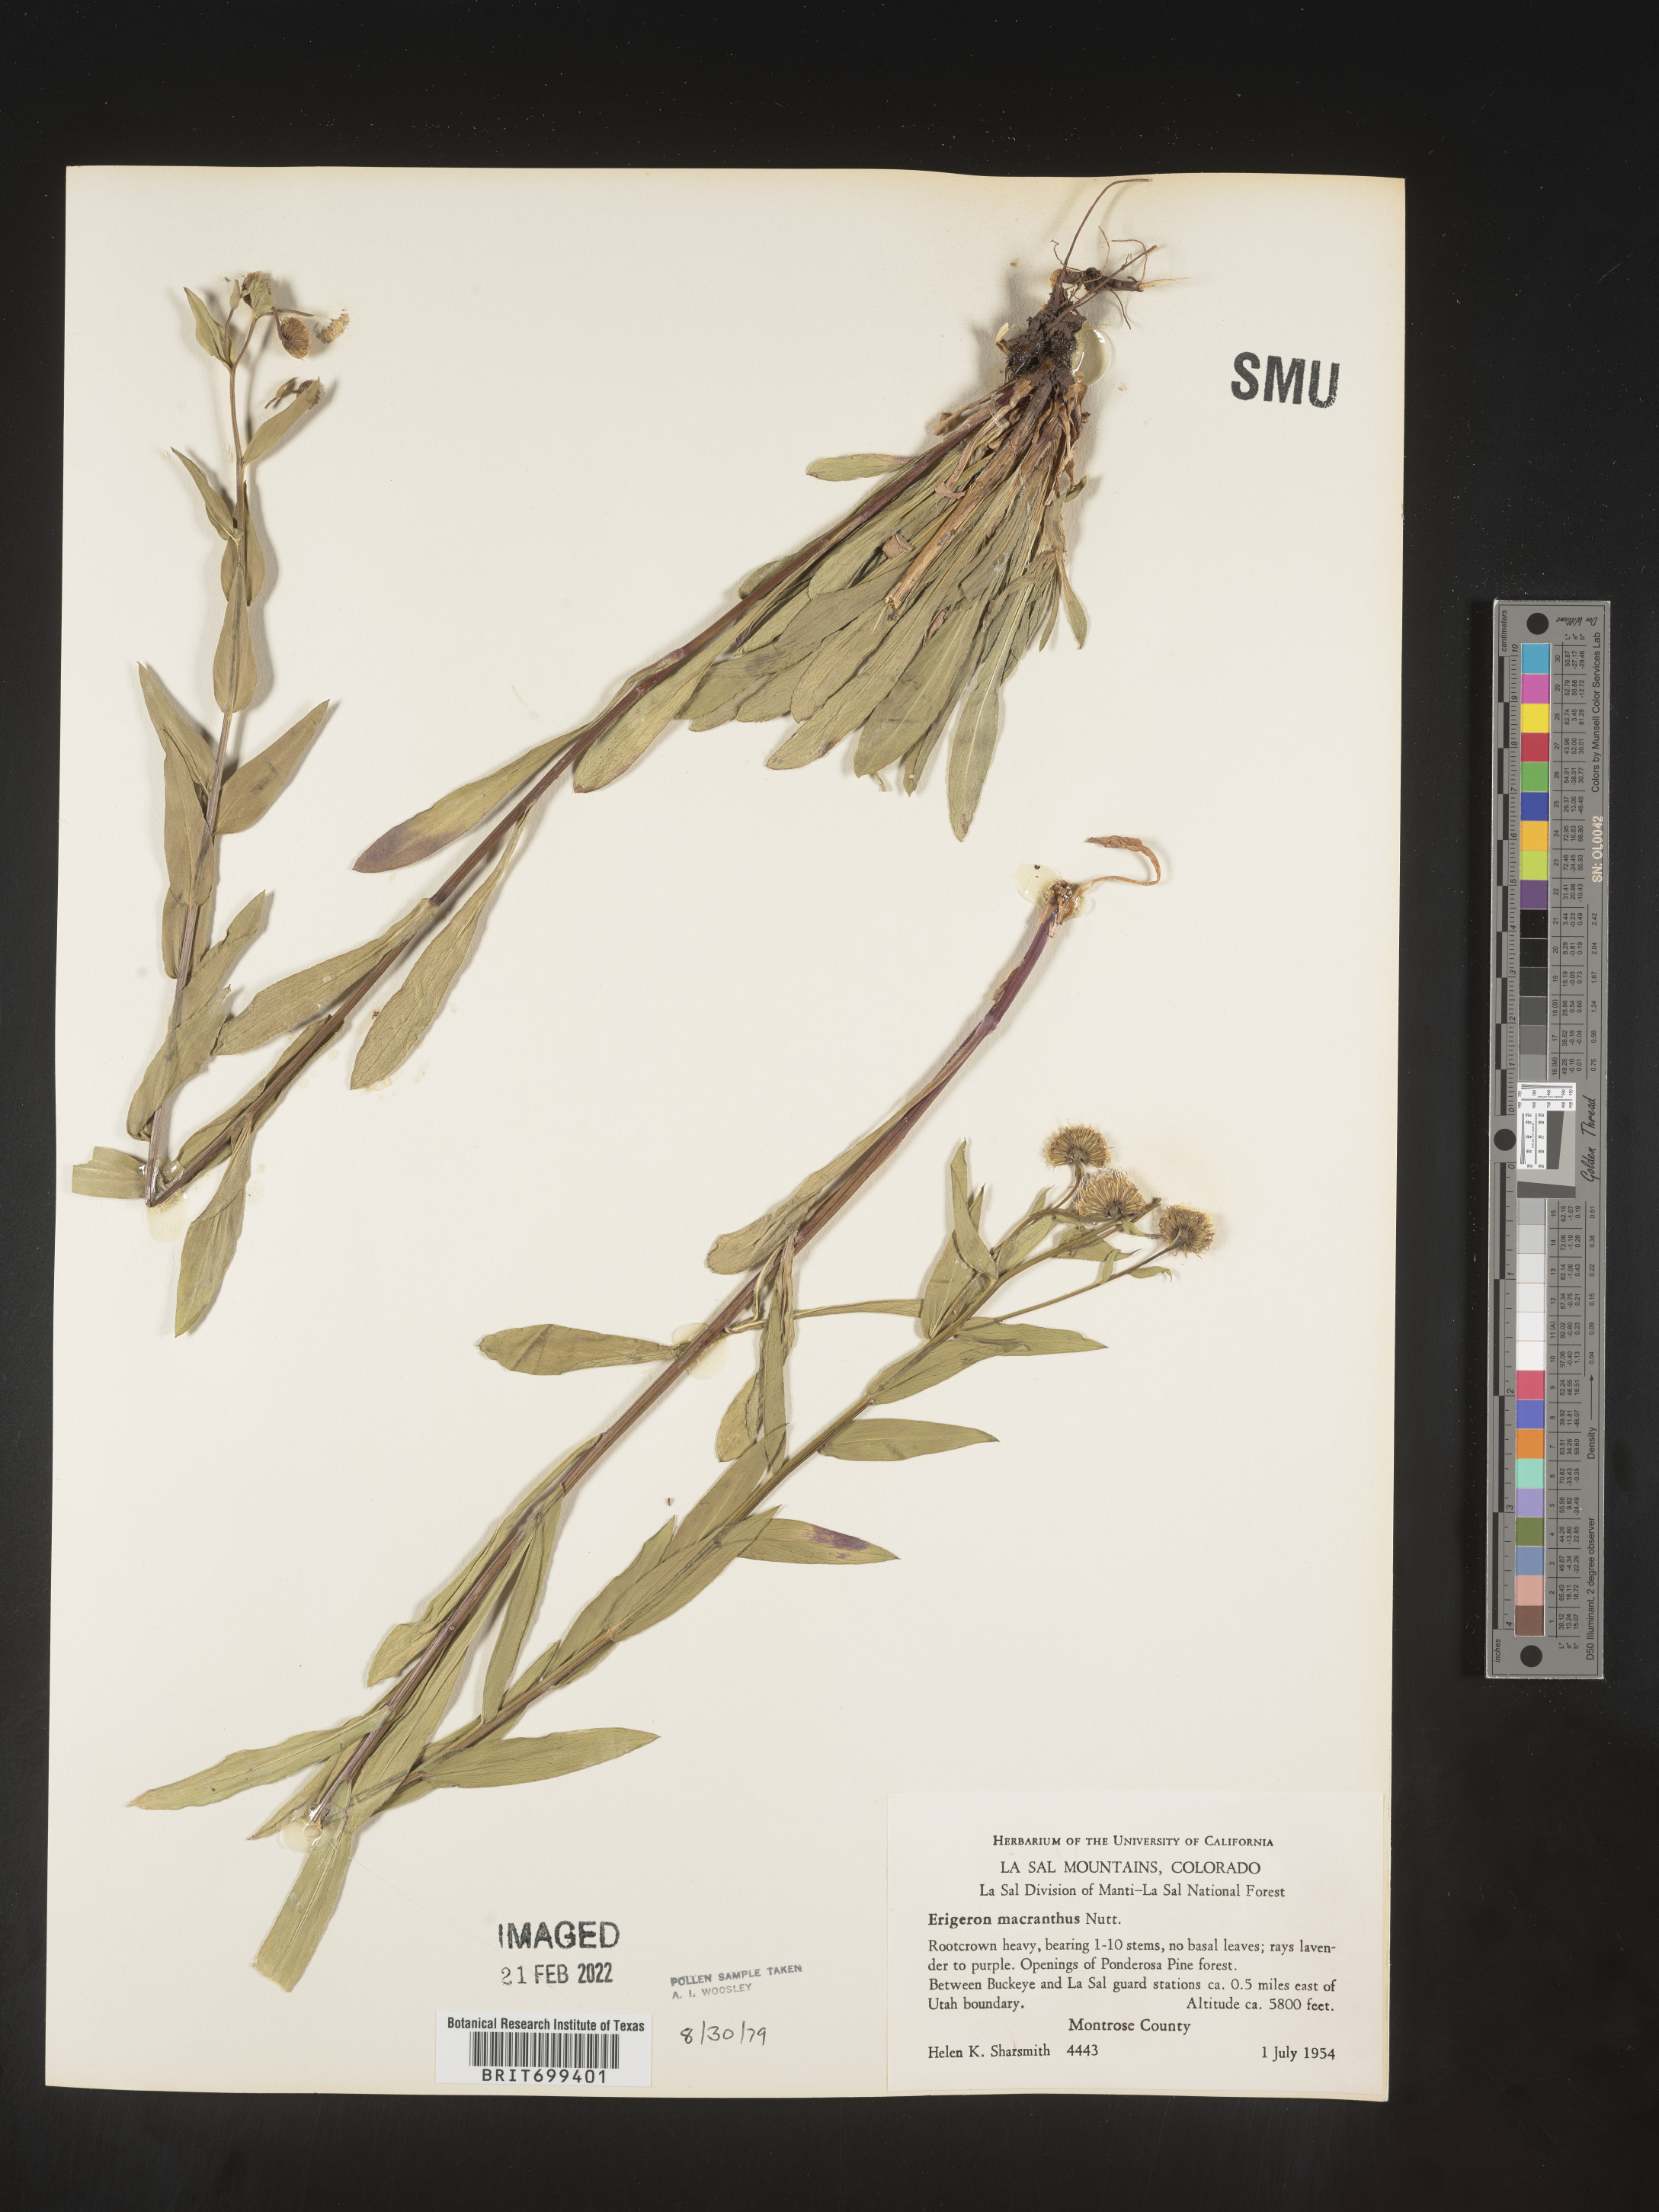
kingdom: Plantae
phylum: Tracheophyta
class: Magnoliopsida
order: Asterales
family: Asteraceae
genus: Erigeron
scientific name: Erigeron speciosus
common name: Aspen fleabane
